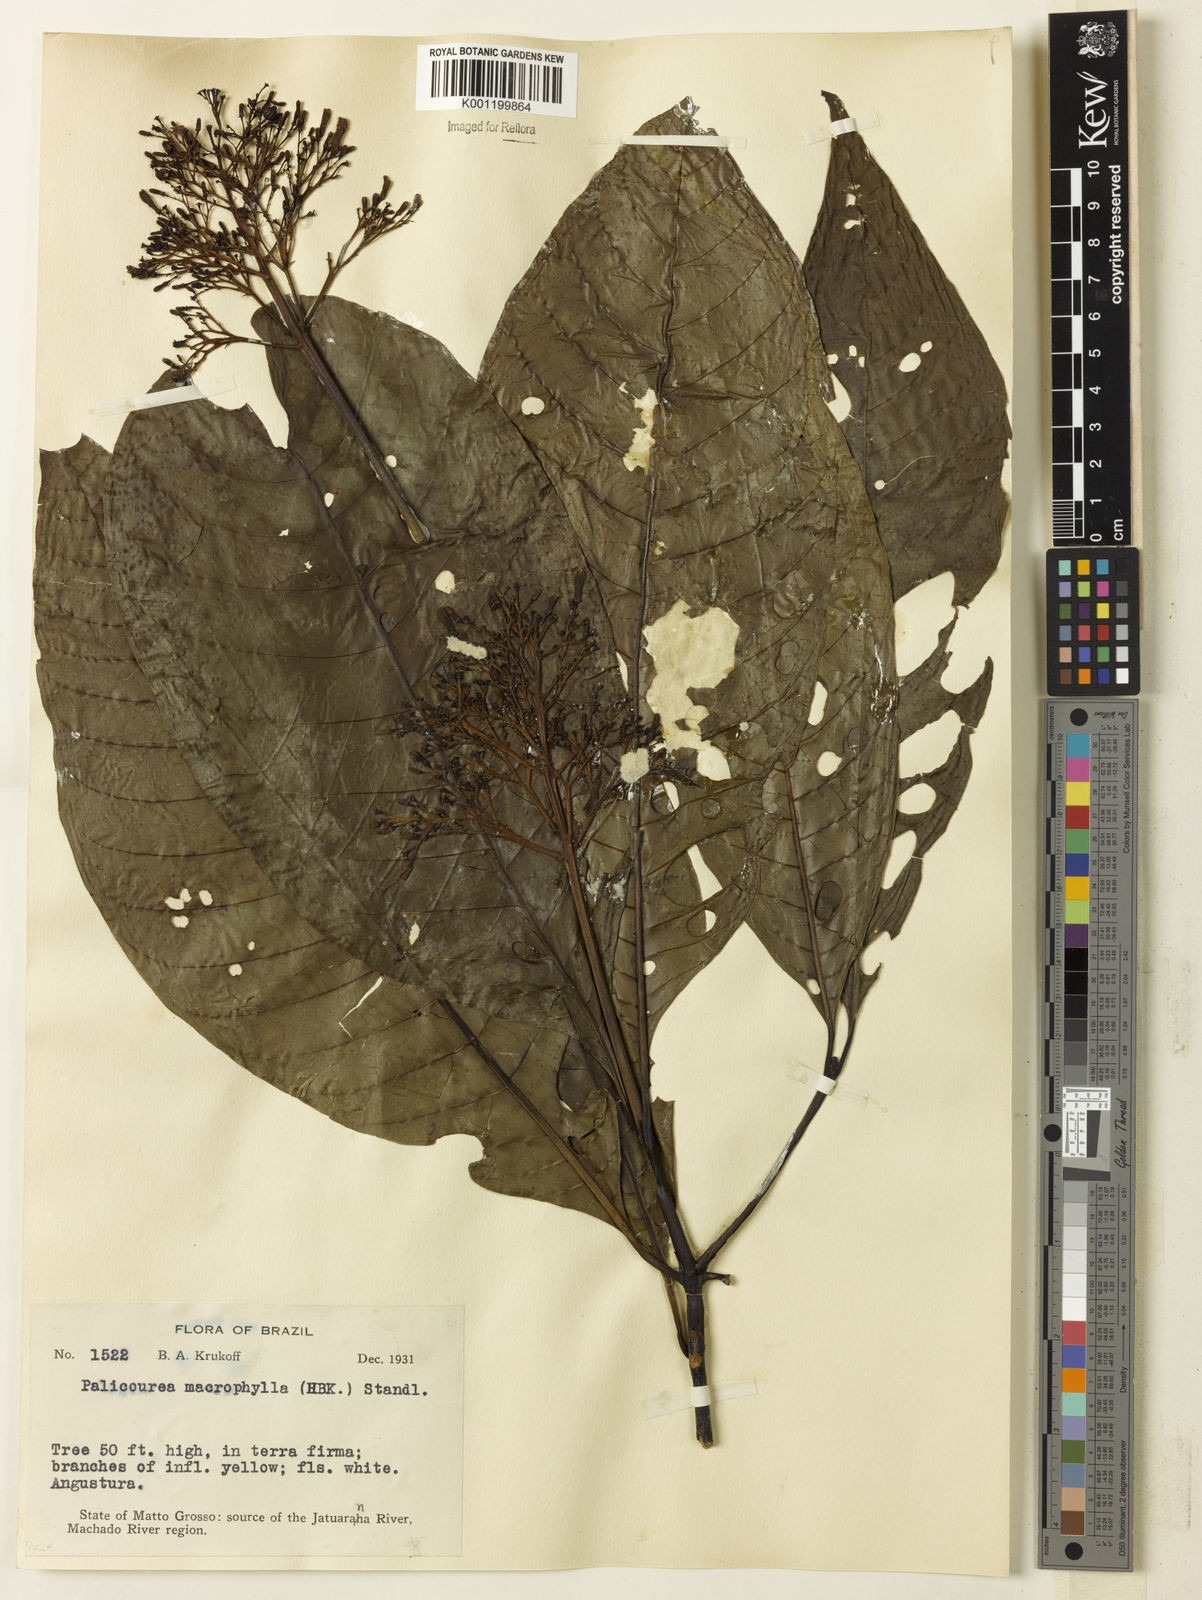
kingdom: Plantae
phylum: Tracheophyta
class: Magnoliopsida
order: Gentianales
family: Rubiaceae
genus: Palicourea
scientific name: Palicourea grandifolia
